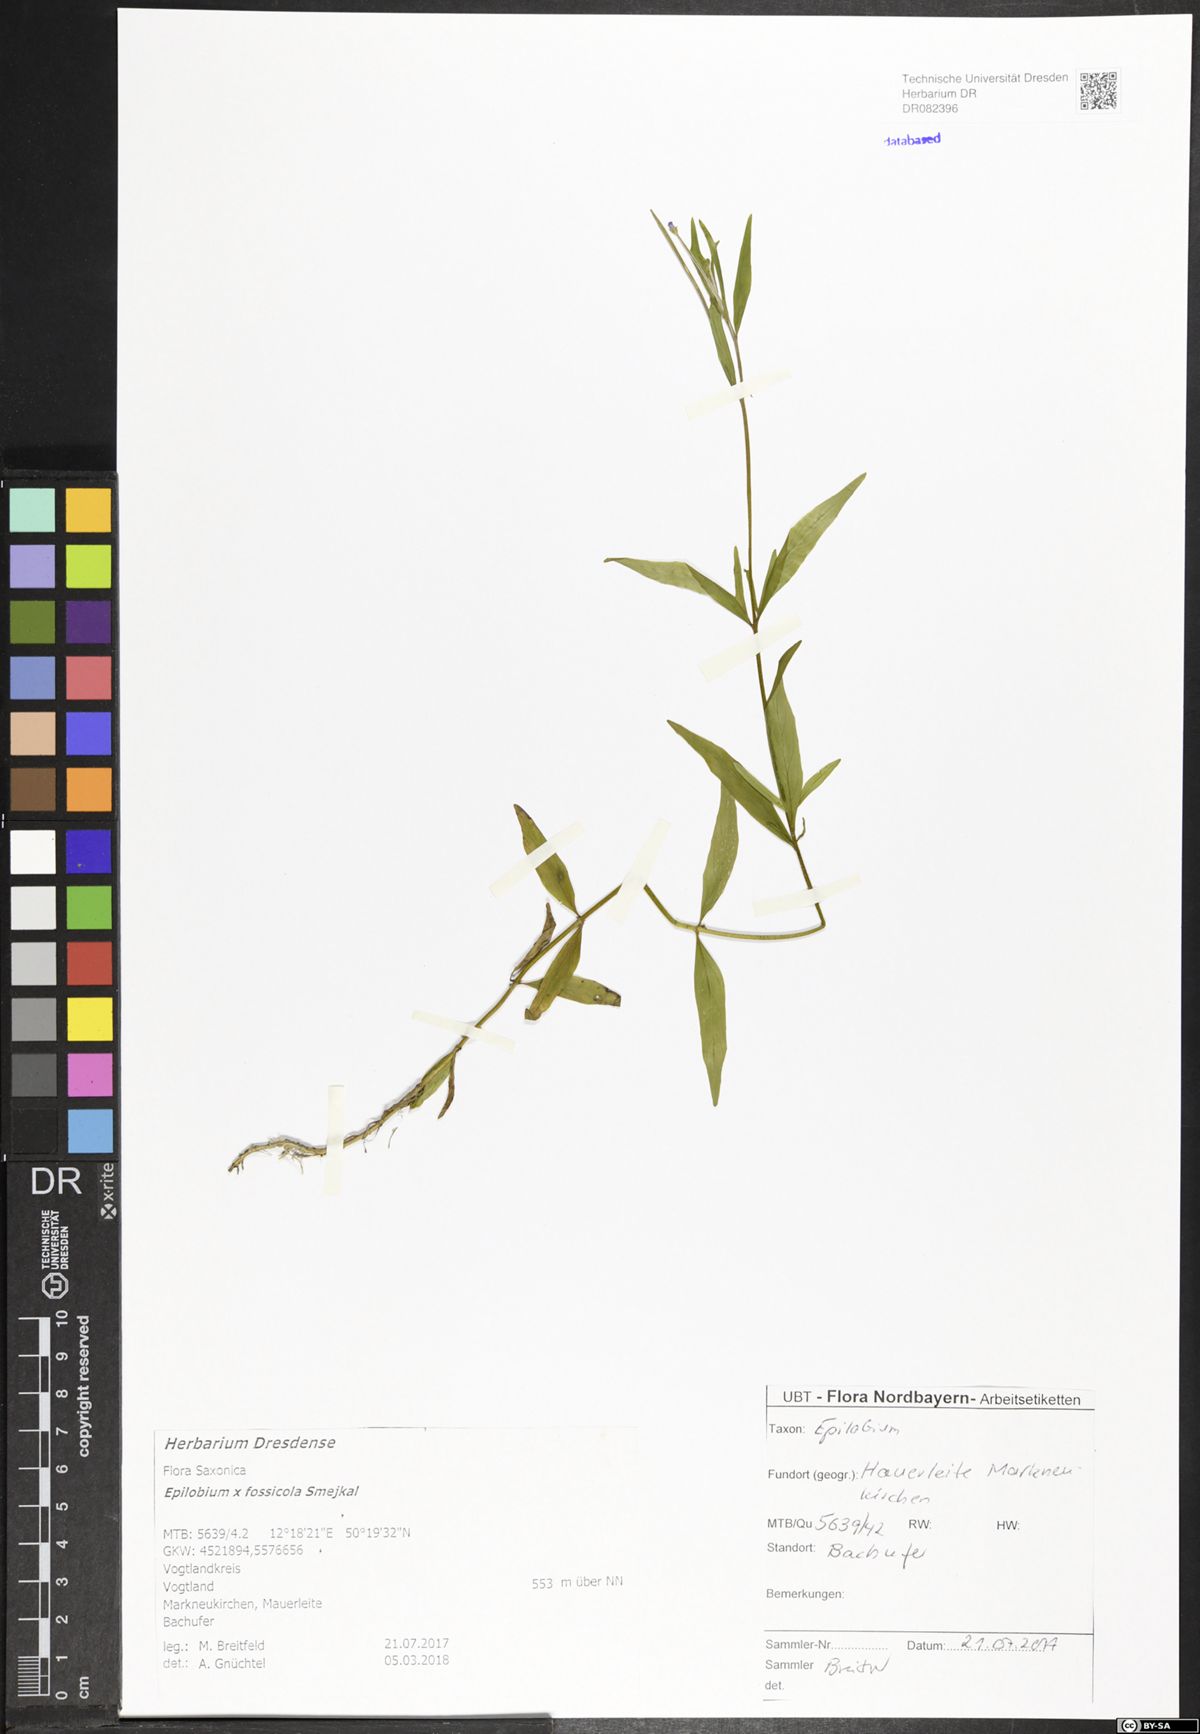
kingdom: Plantae
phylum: Tracheophyta
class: Magnoliopsida
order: Myrtales
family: Onagraceae
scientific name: Onagraceae
